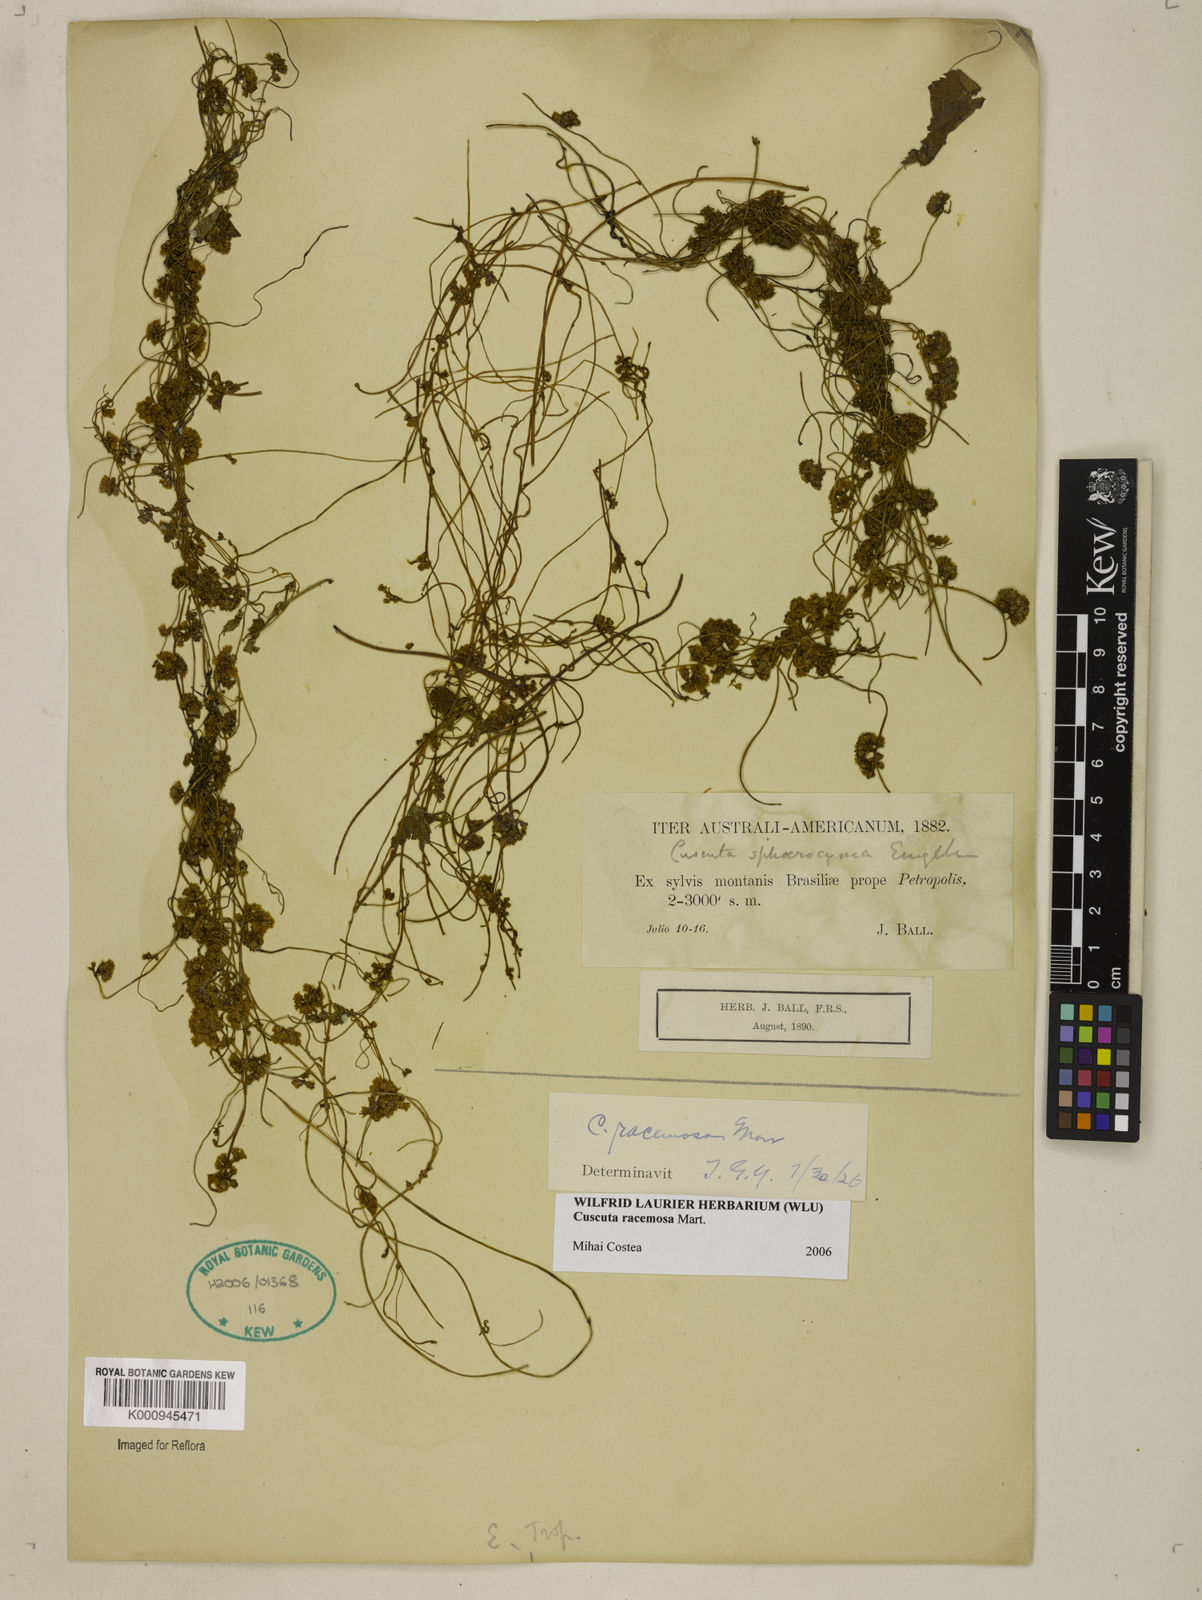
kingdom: Plantae
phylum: Tracheophyta
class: Magnoliopsida
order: Solanales
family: Convolvulaceae
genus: Cuscuta
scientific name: Cuscuta racemosa
